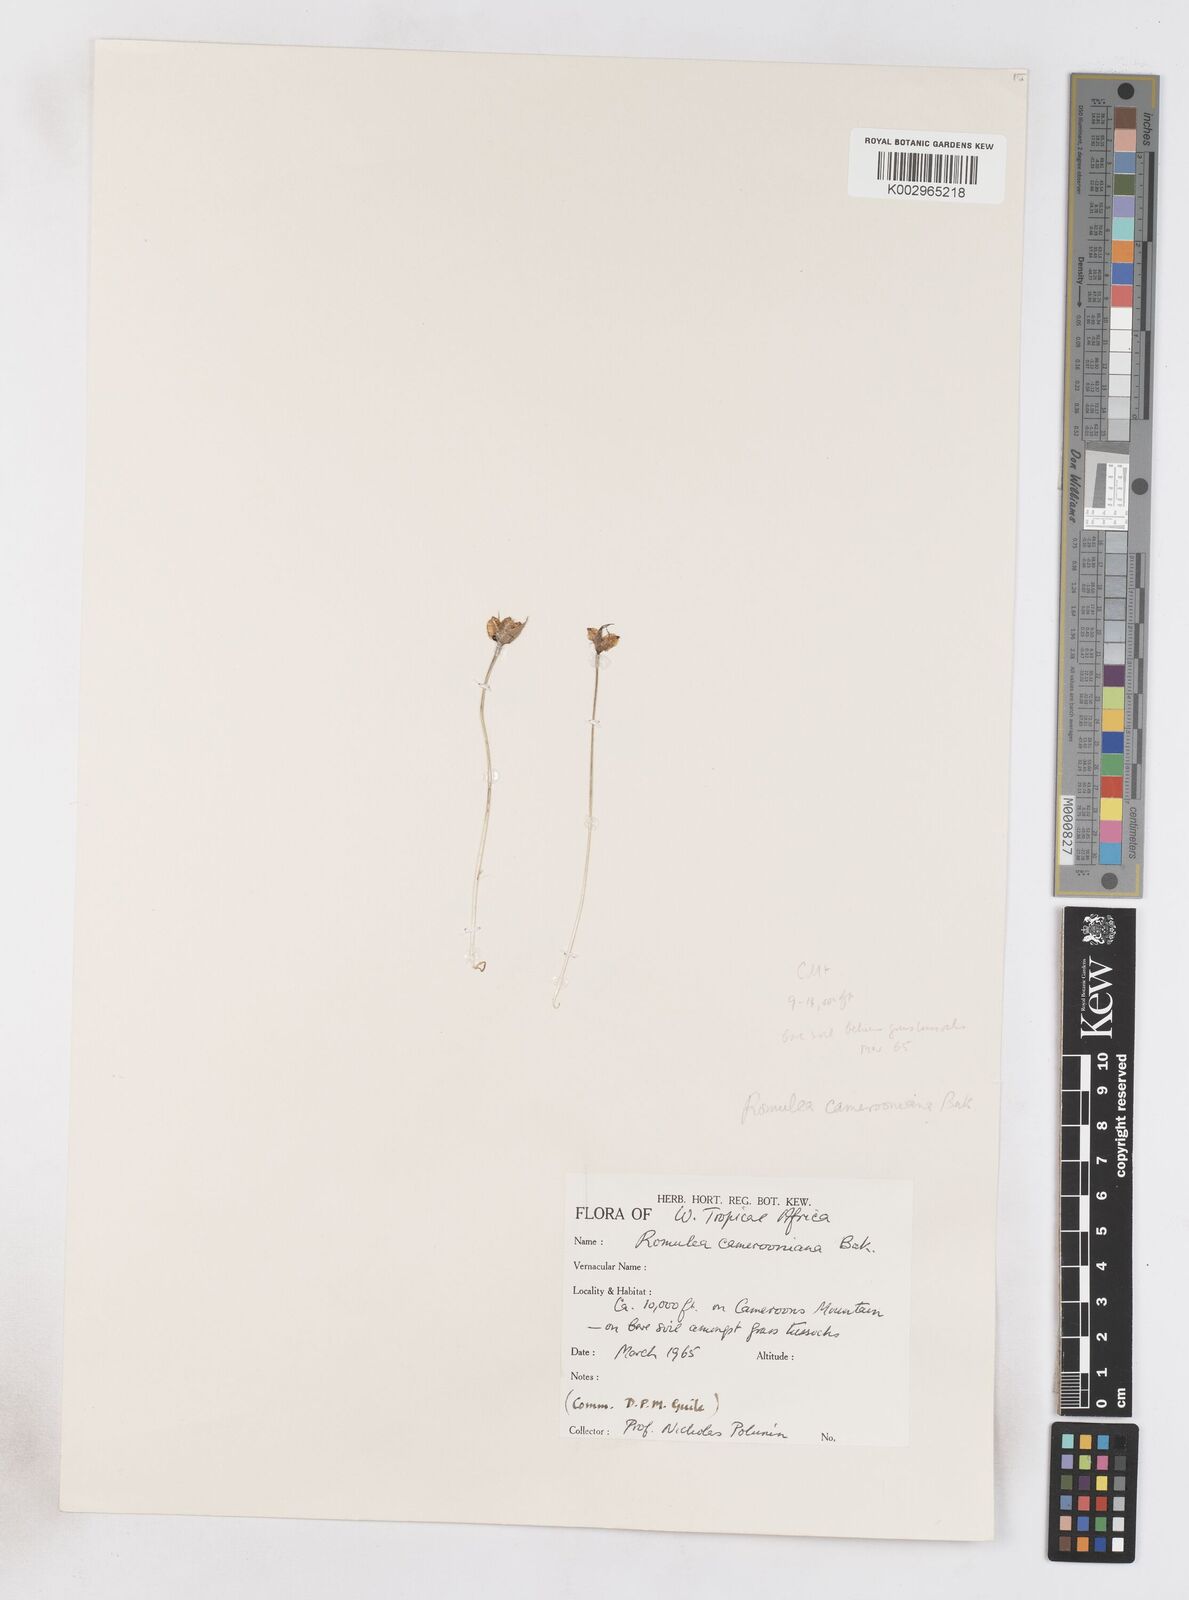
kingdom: Plantae
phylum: Tracheophyta
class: Liliopsida
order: Asparagales
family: Iridaceae
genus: Romulea
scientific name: Romulea camerooniana
